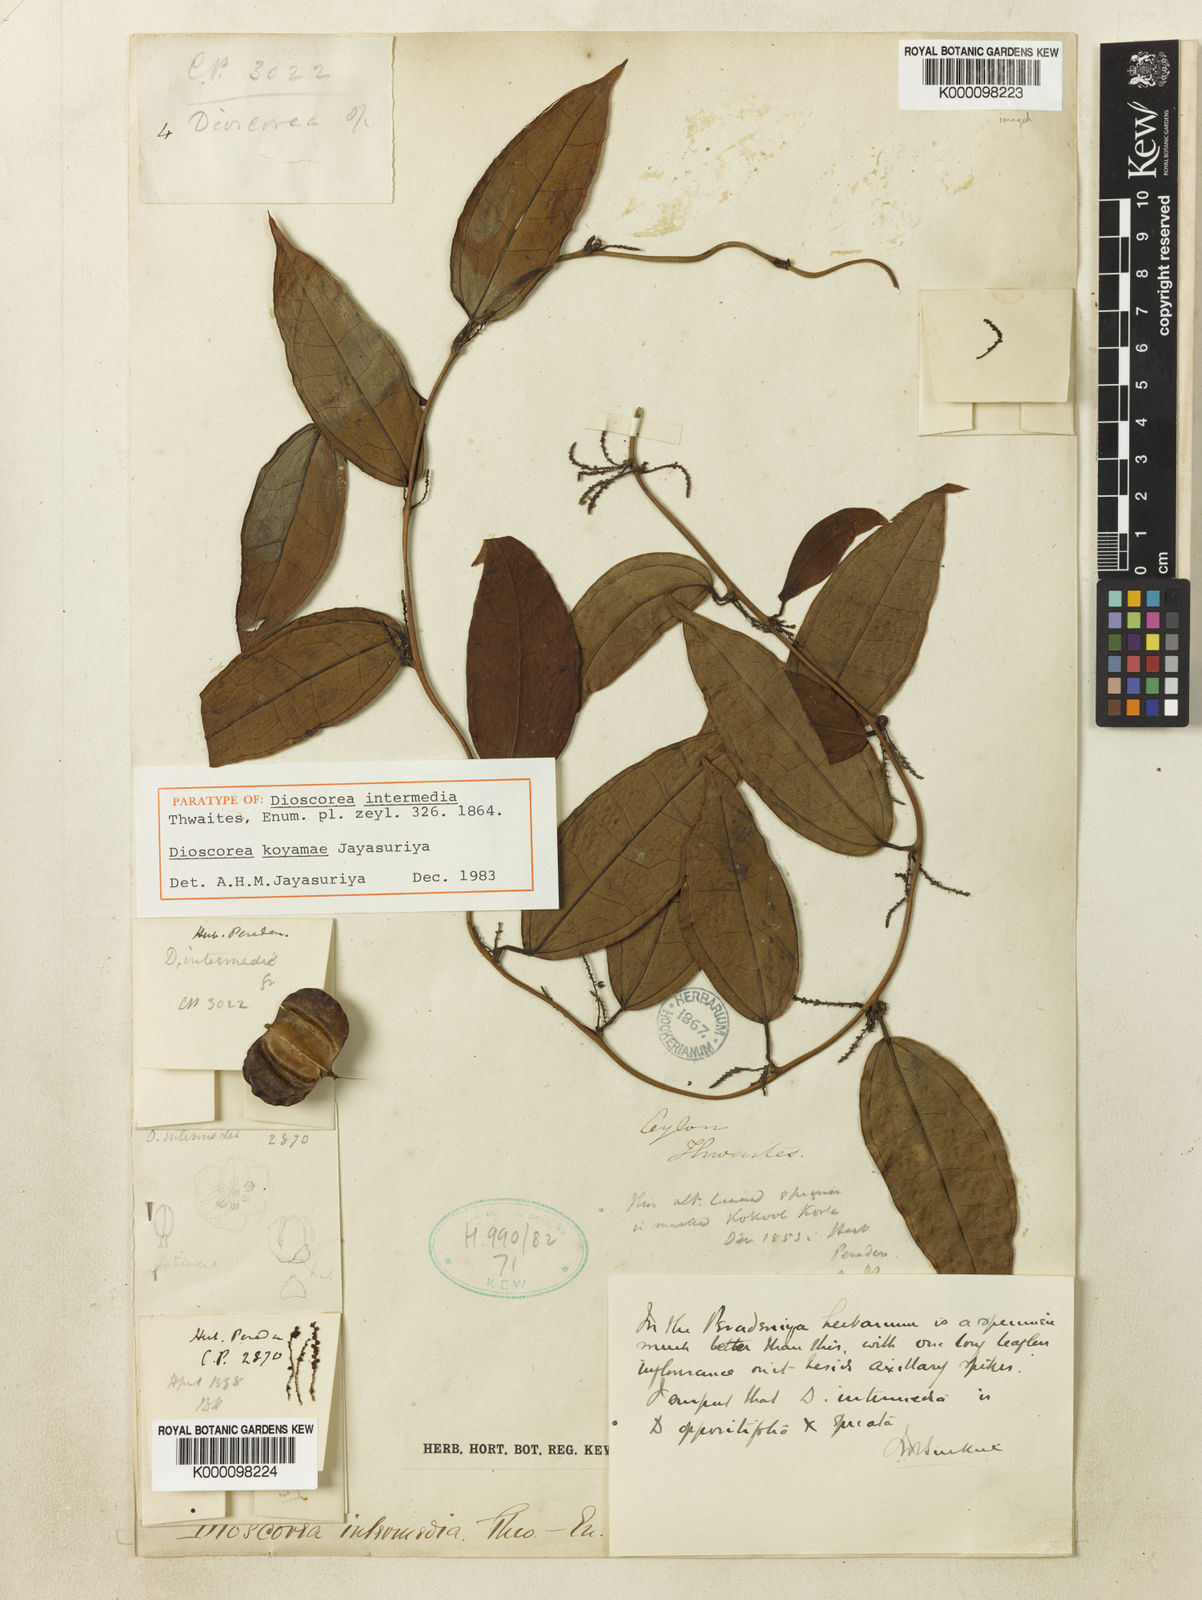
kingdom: Plantae
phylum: Tracheophyta
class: Liliopsida
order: Dioscoreales
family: Dioscoreaceae
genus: Dioscorea
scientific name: Dioscorea
